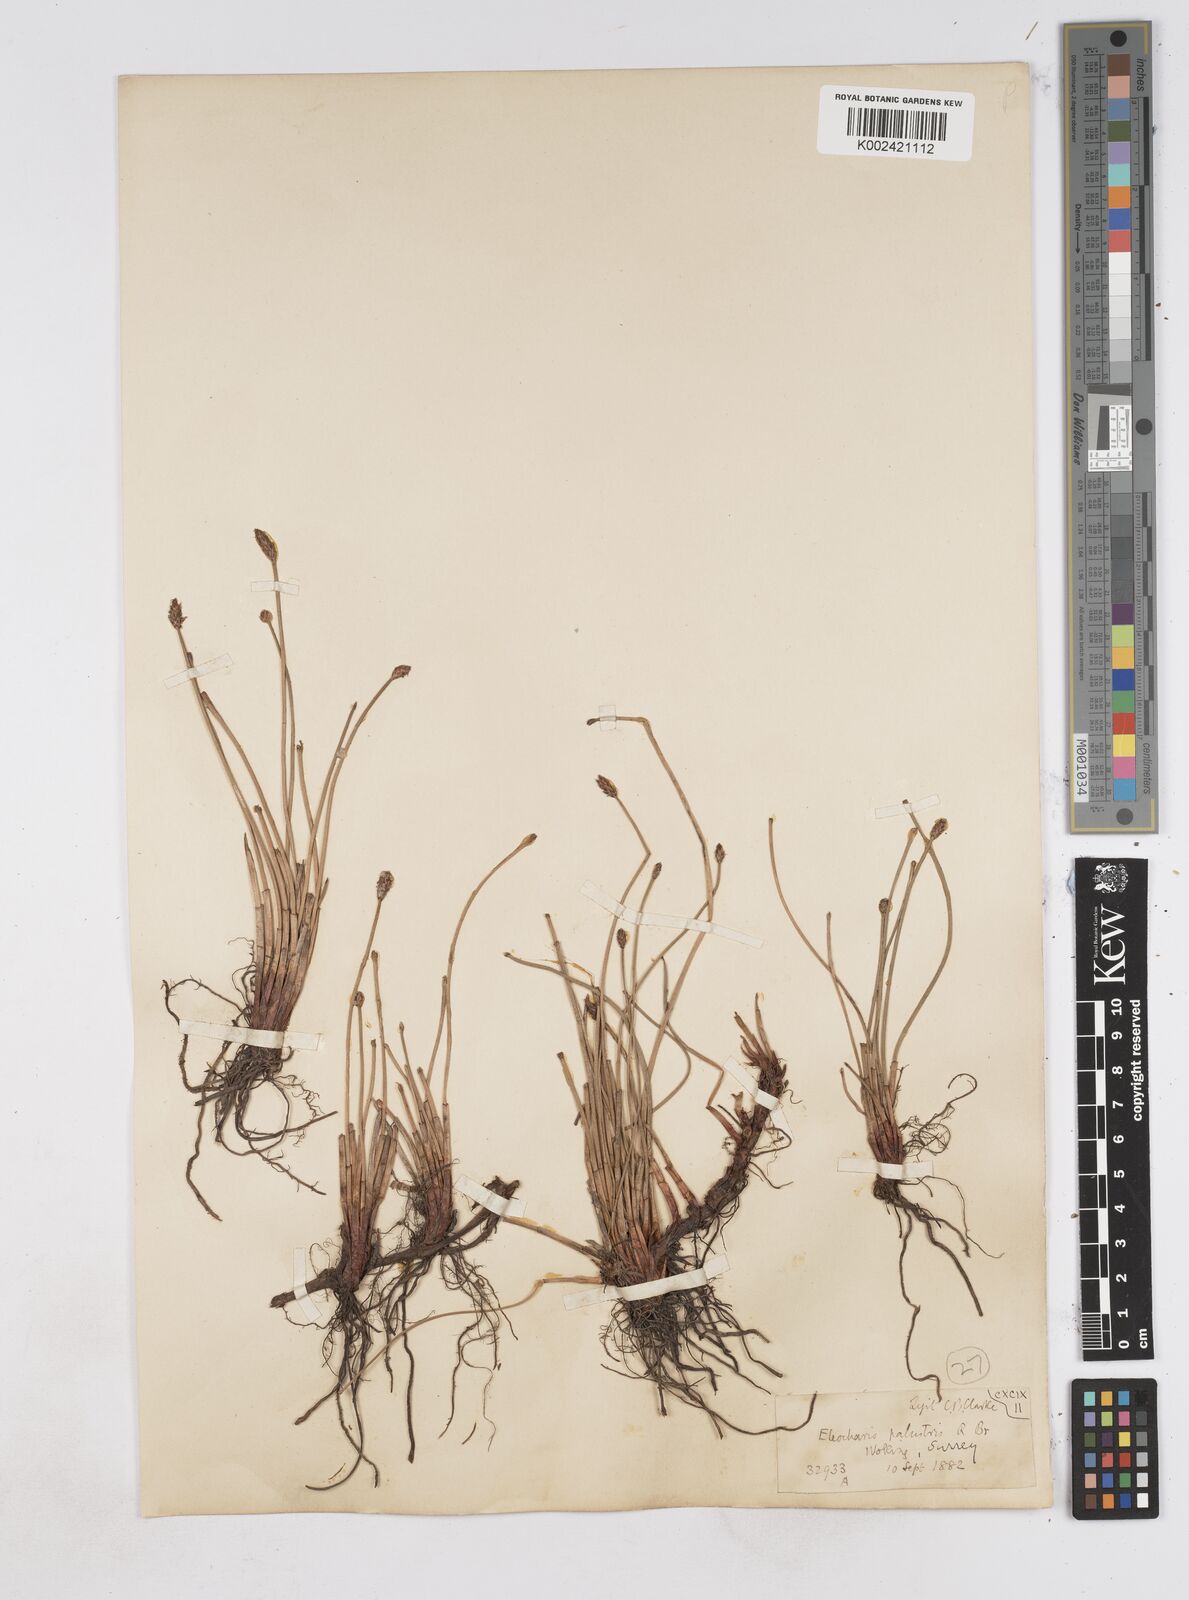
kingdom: Plantae
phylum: Tracheophyta
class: Liliopsida
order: Poales
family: Cyperaceae
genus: Eleocharis
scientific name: Eleocharis palustris
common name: Common spike-rush
